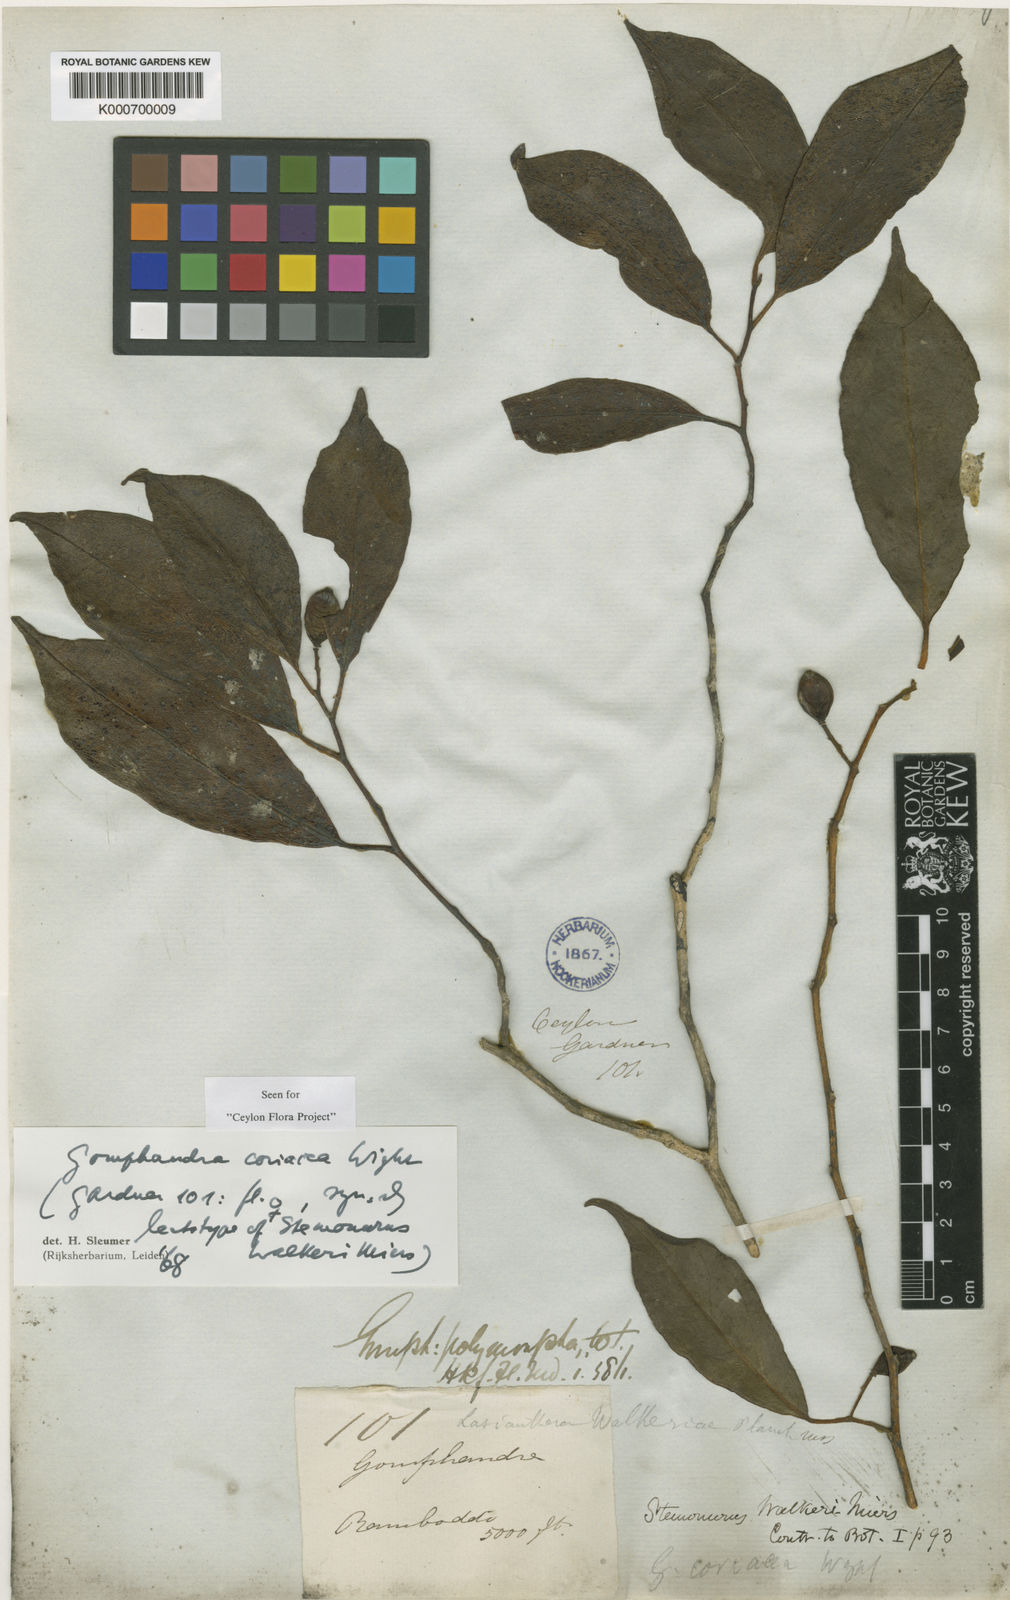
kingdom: Plantae
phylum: Tracheophyta
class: Magnoliopsida
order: Cardiopteridales
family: Stemonuraceae
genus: Gomphandra
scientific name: Gomphandra coriacea
